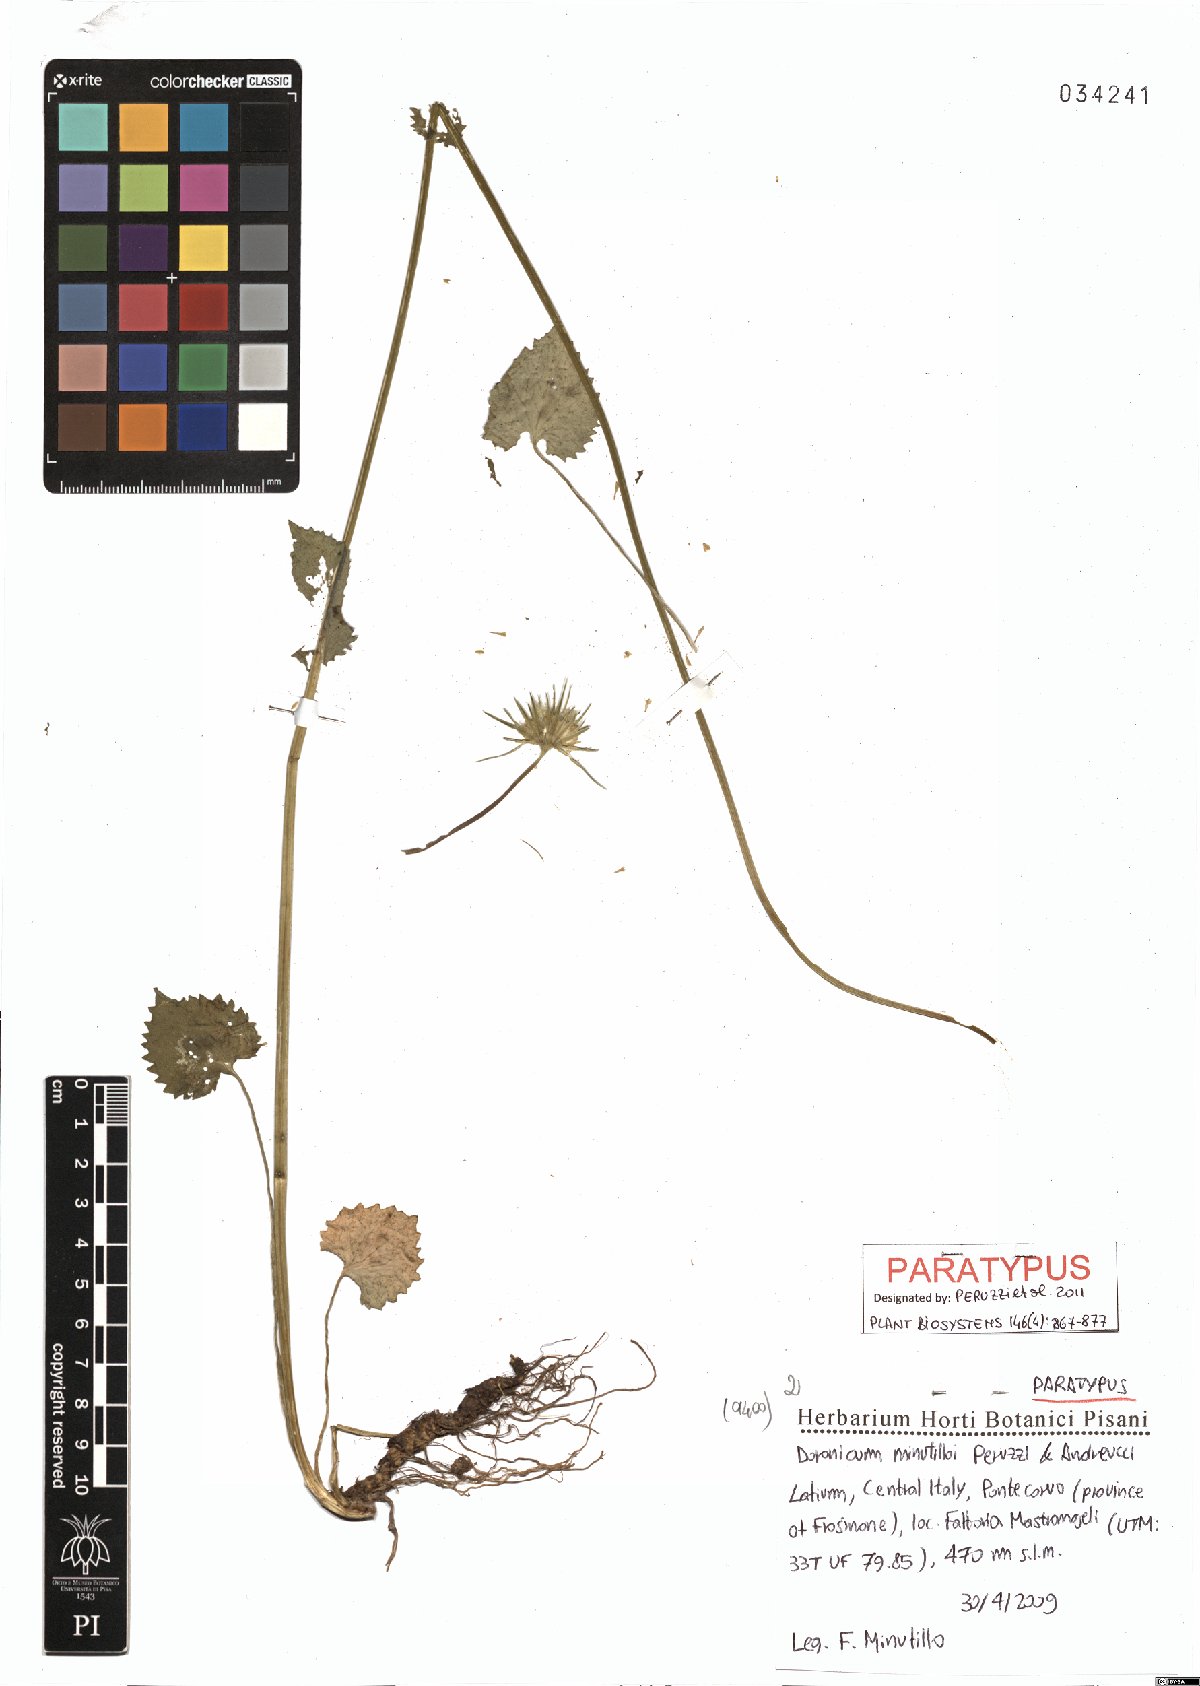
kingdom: Plantae
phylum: Tracheophyta
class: Magnoliopsida
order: Asterales
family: Asteraceae
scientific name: Asteraceae
